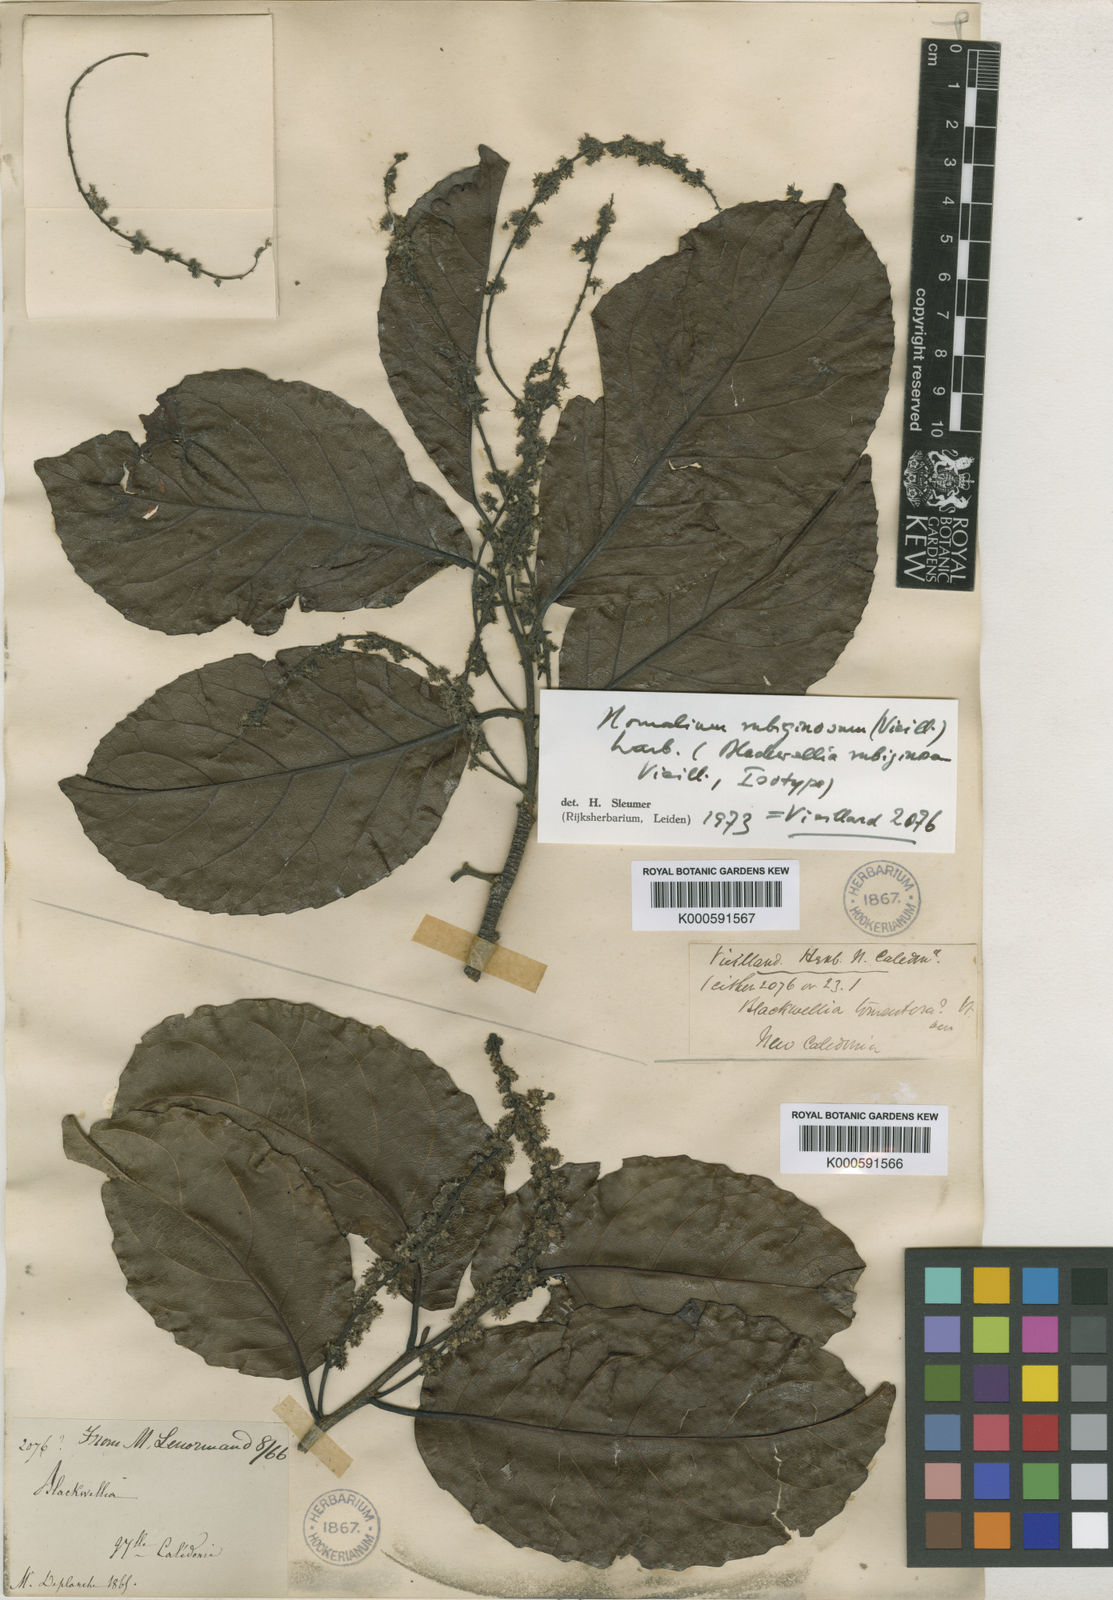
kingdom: Plantae
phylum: Tracheophyta
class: Magnoliopsida
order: Malpighiales
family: Salicaceae
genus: Homalium
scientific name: Homalium rubiginosum
